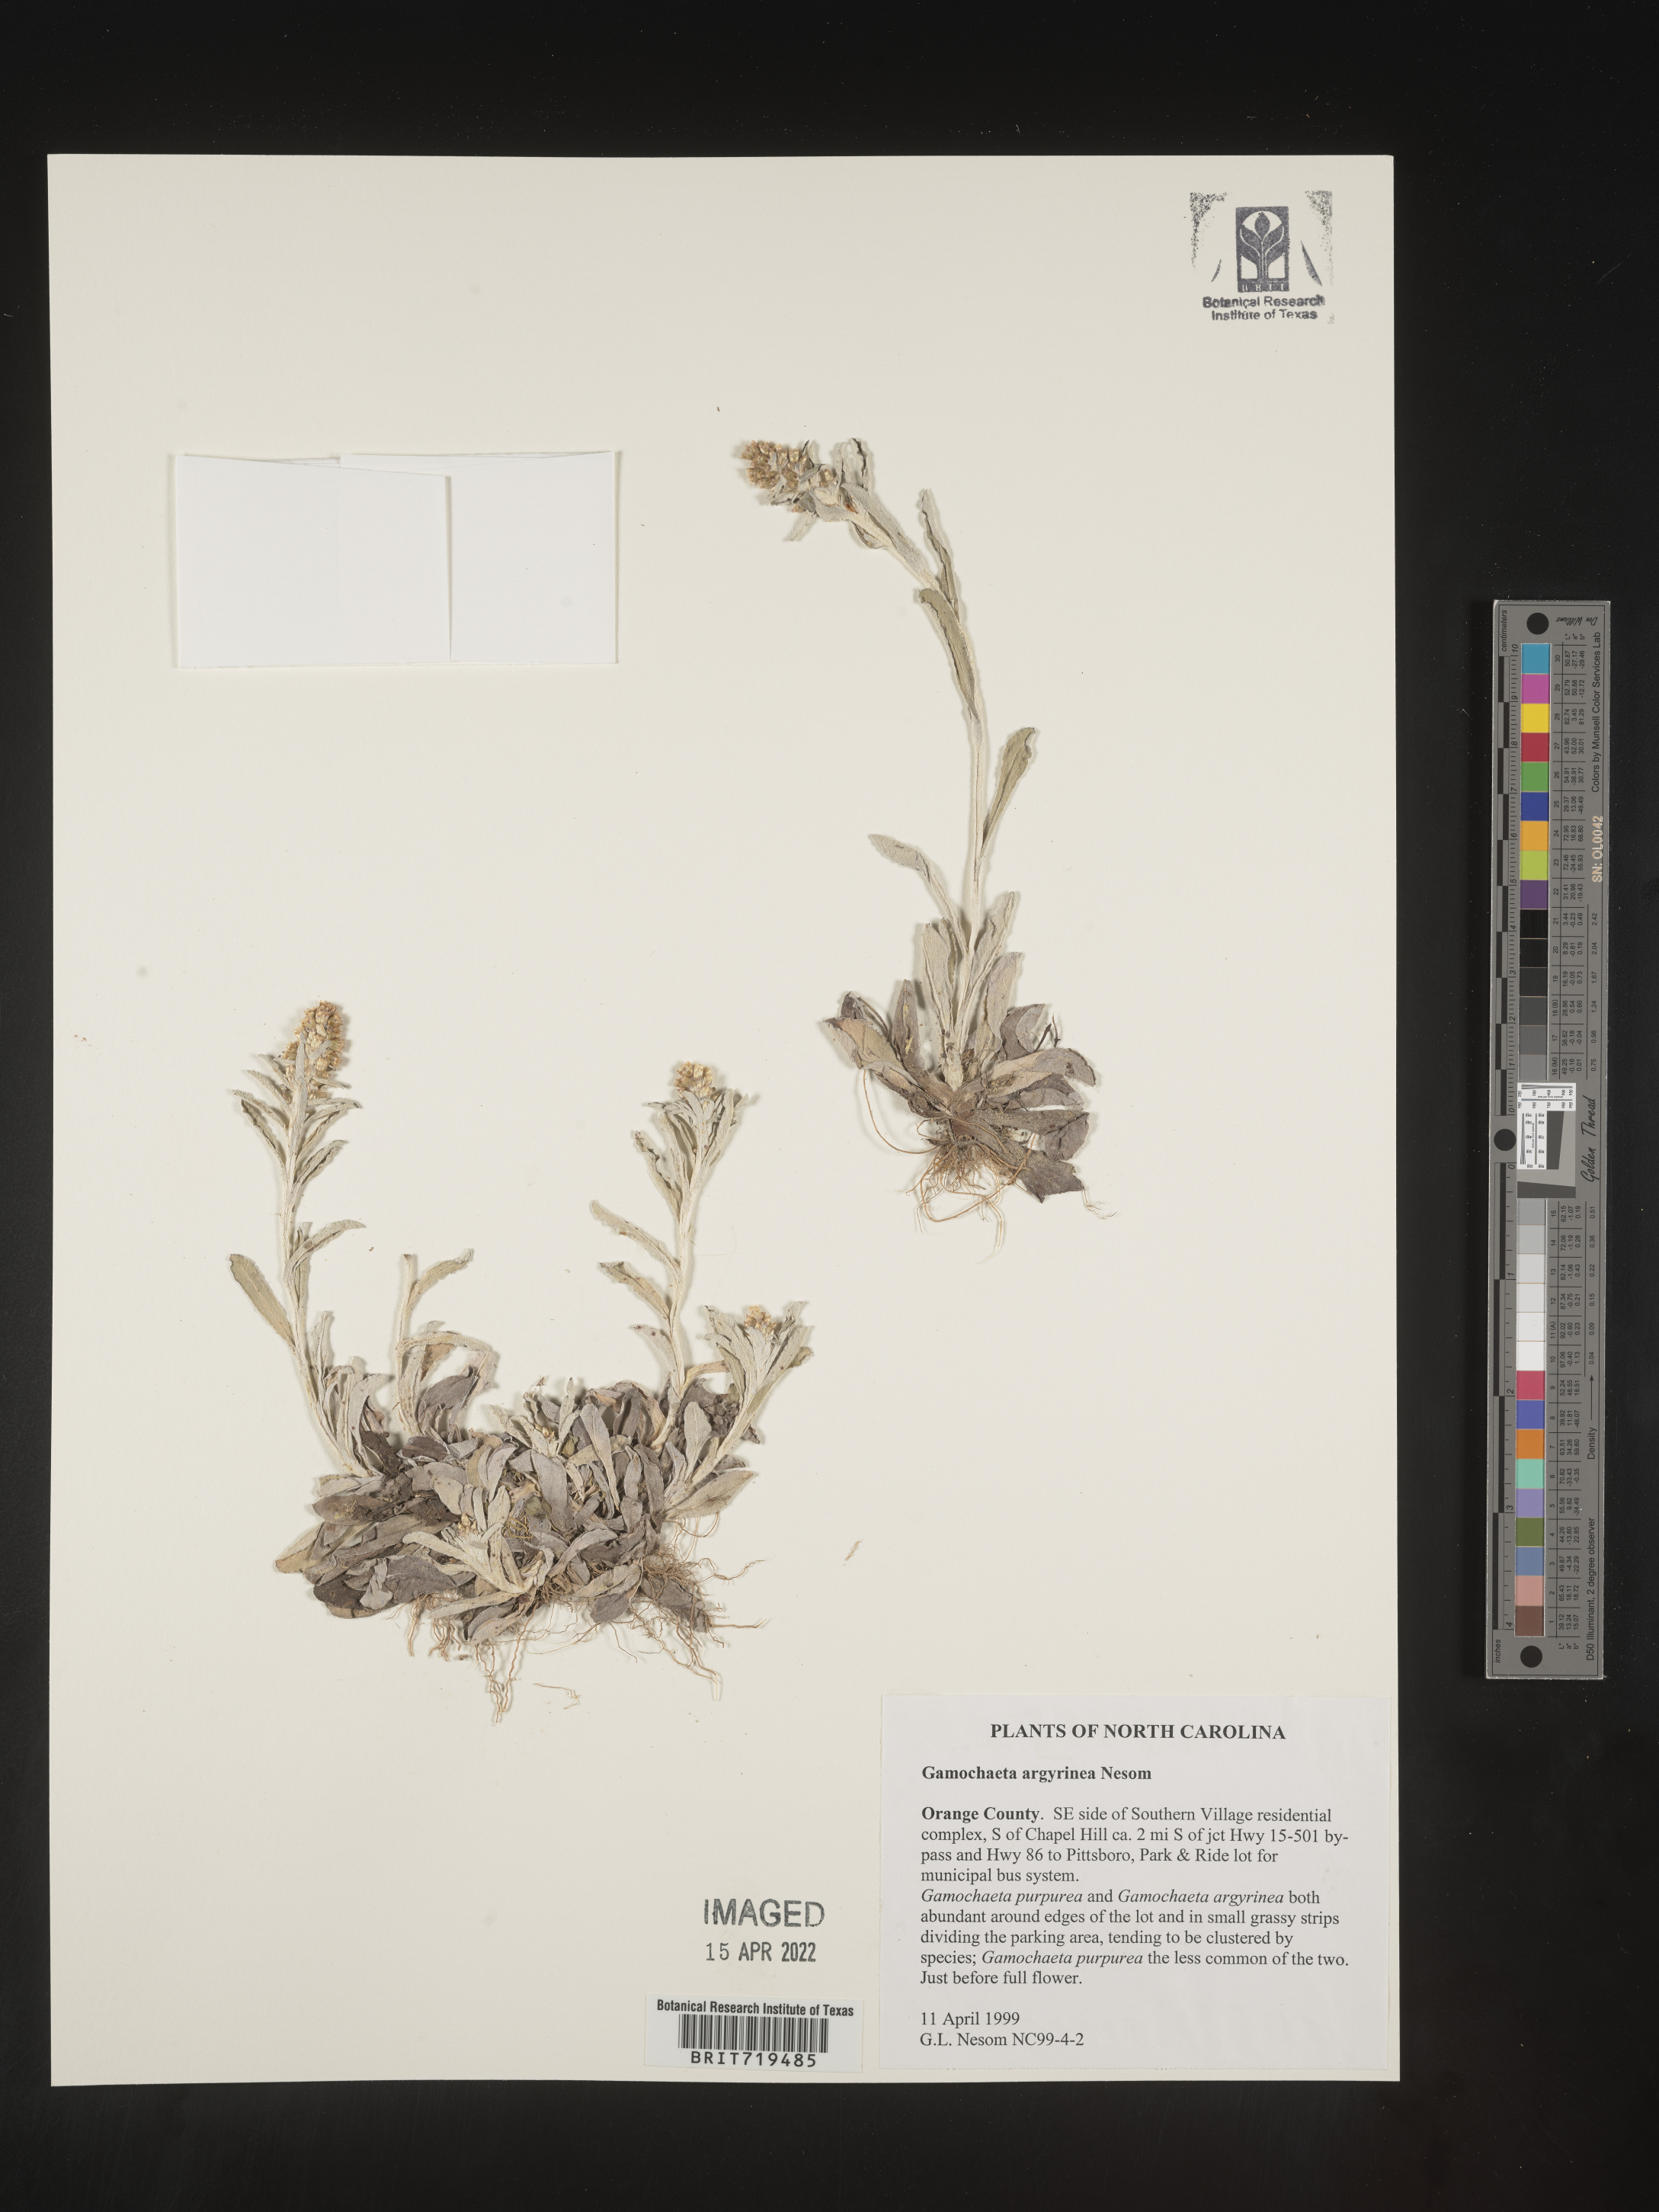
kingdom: Plantae
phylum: Tracheophyta
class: Magnoliopsida
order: Asterales
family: Asteraceae
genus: Gamochaeta
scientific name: Gamochaeta argyrinea
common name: Silvery cudweed
